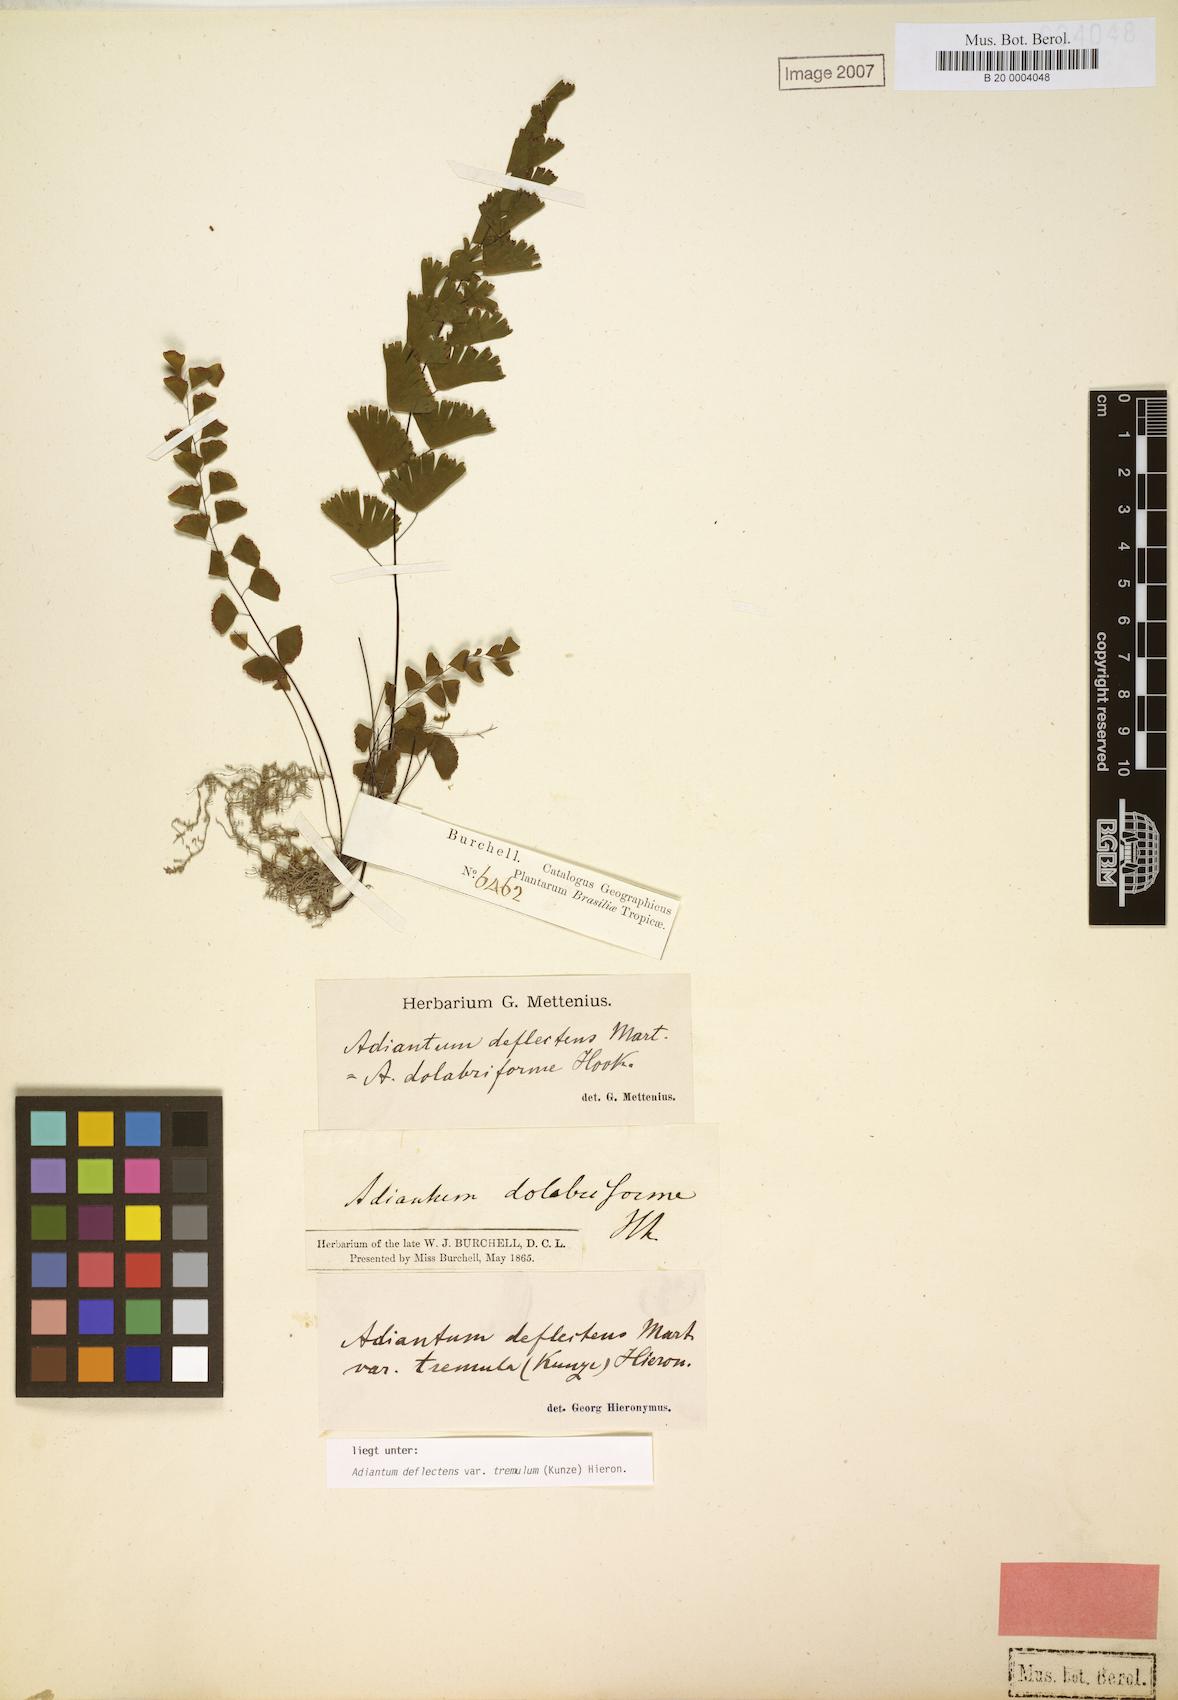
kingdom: Plantae
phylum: Tracheophyta
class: Polypodiopsida
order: Polypodiales
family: Pteridaceae
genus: Adiantum
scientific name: Adiantum deflectens
